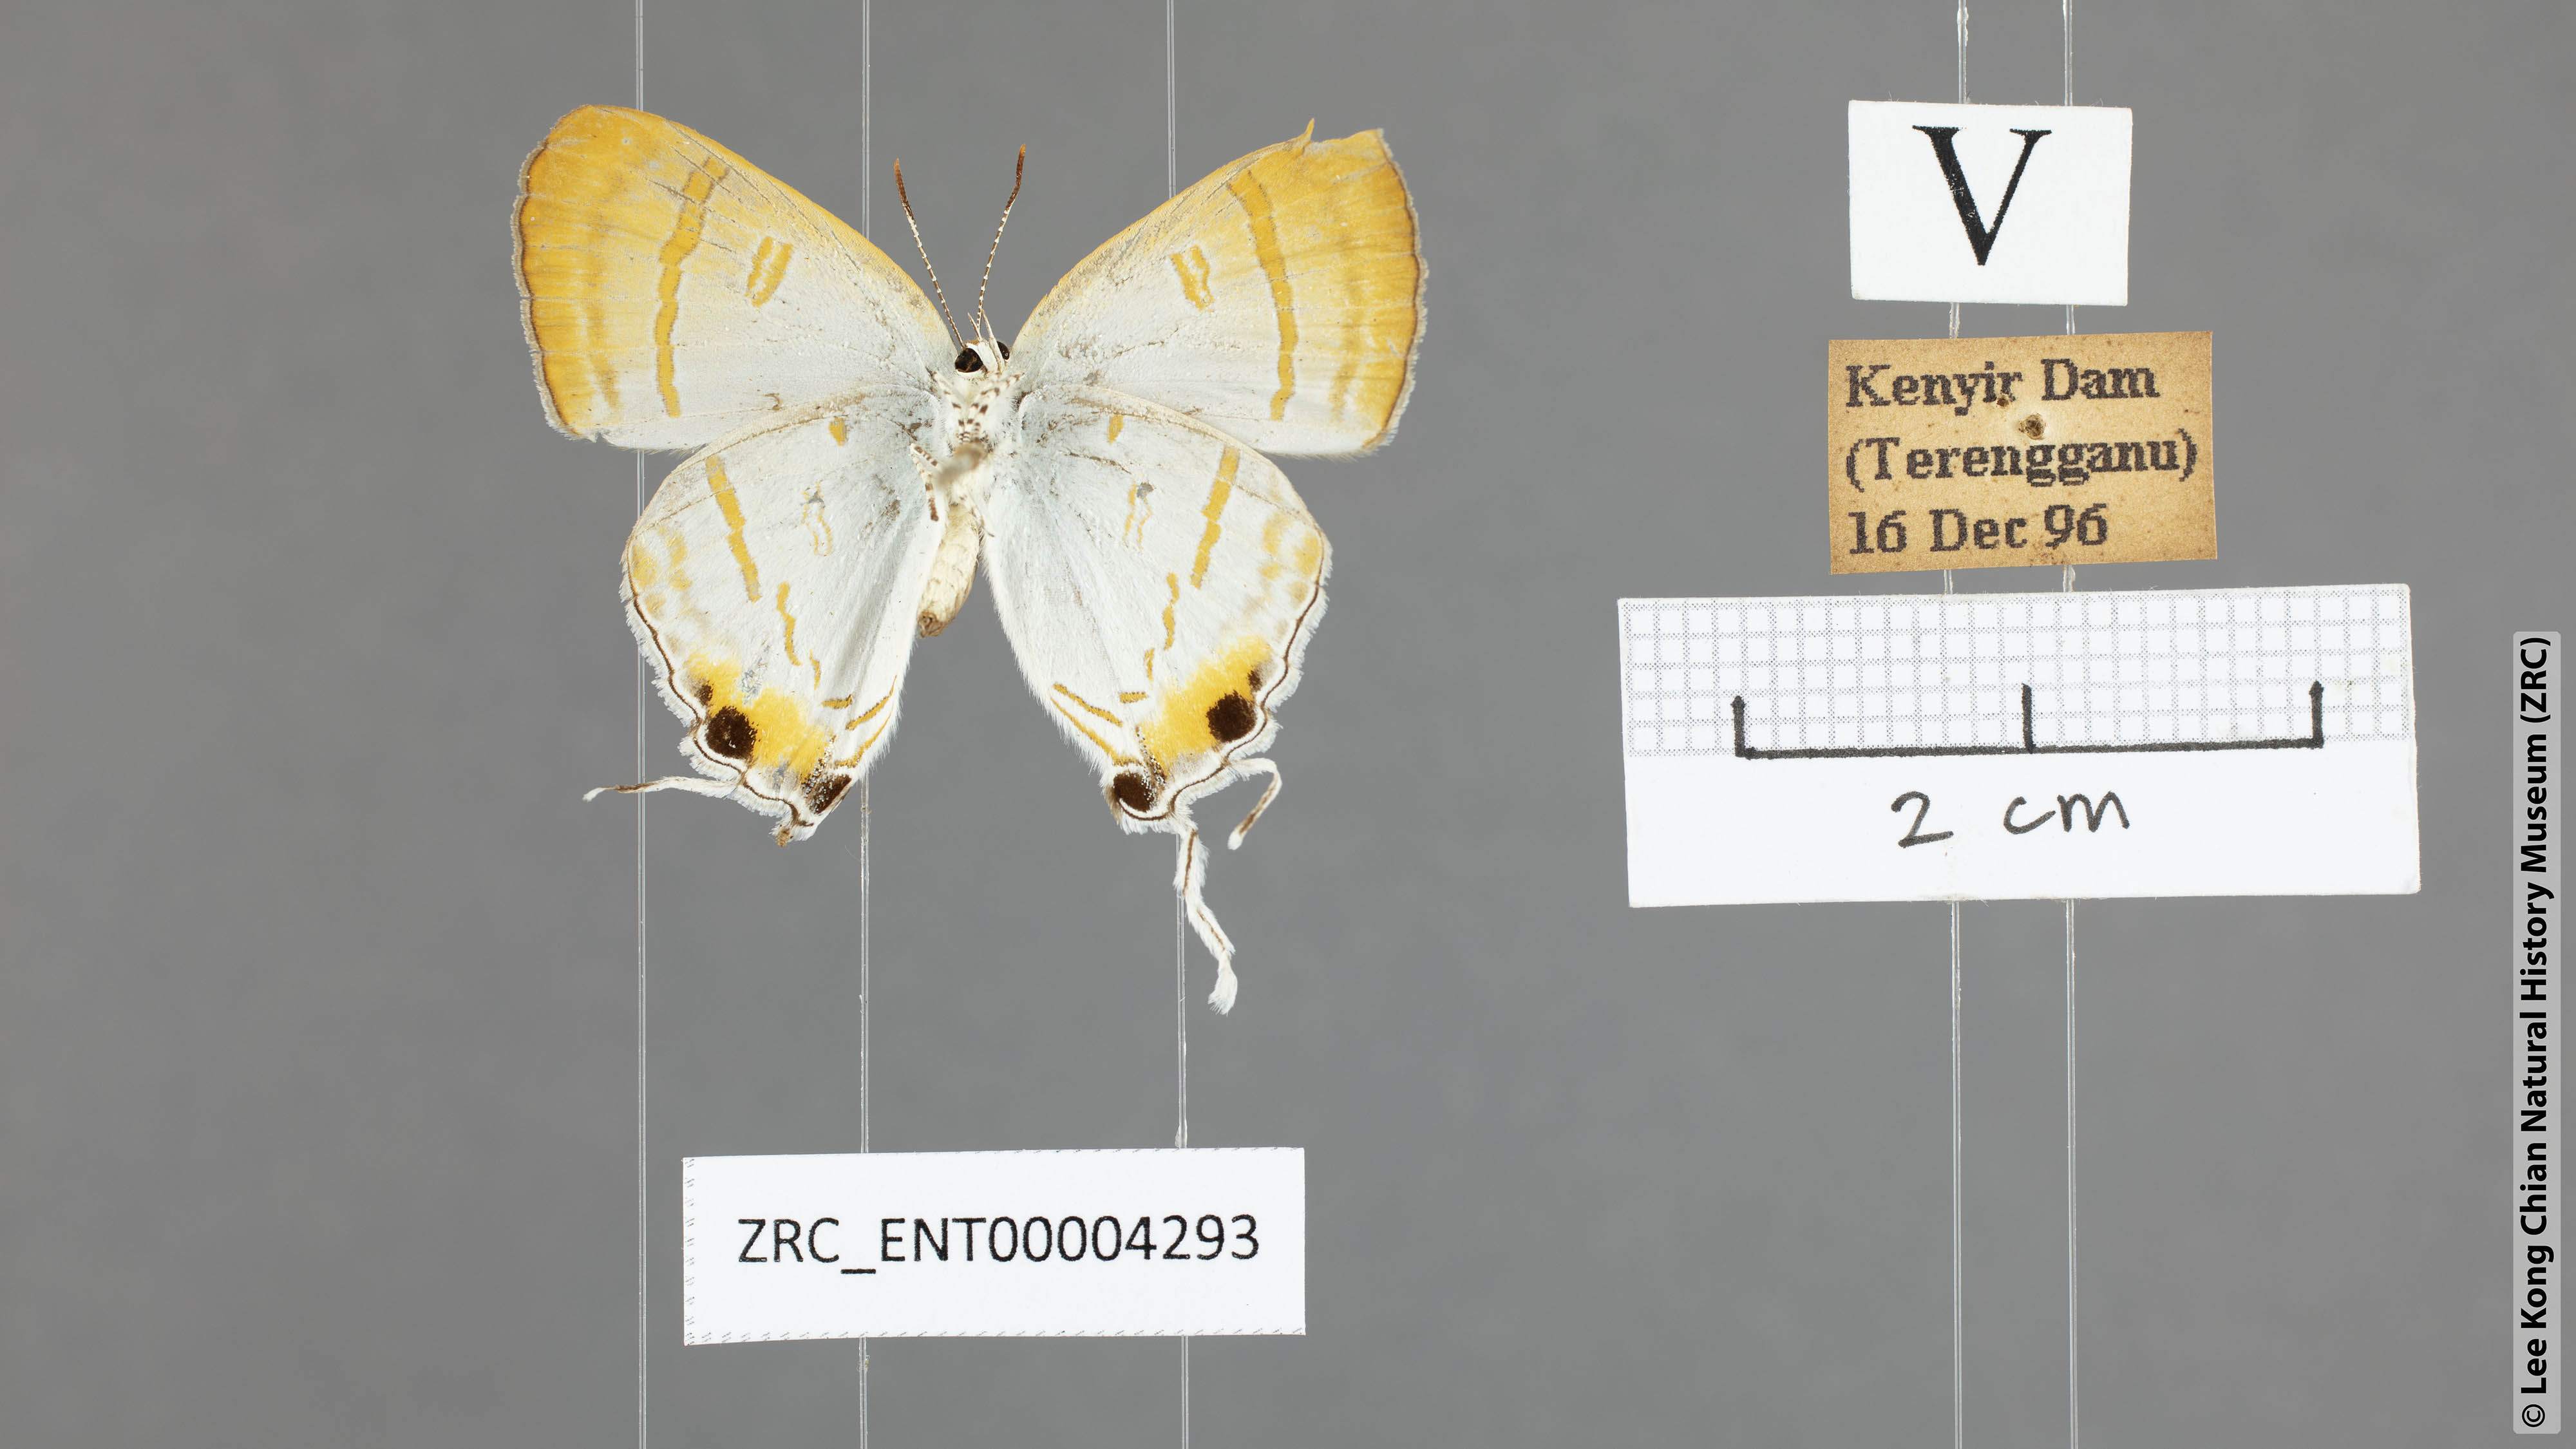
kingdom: Animalia
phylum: Arthropoda
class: Insecta
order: Lepidoptera
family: Lycaenidae
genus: Hypolycaena
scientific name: Hypolycaena thecloides
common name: Dark tit
